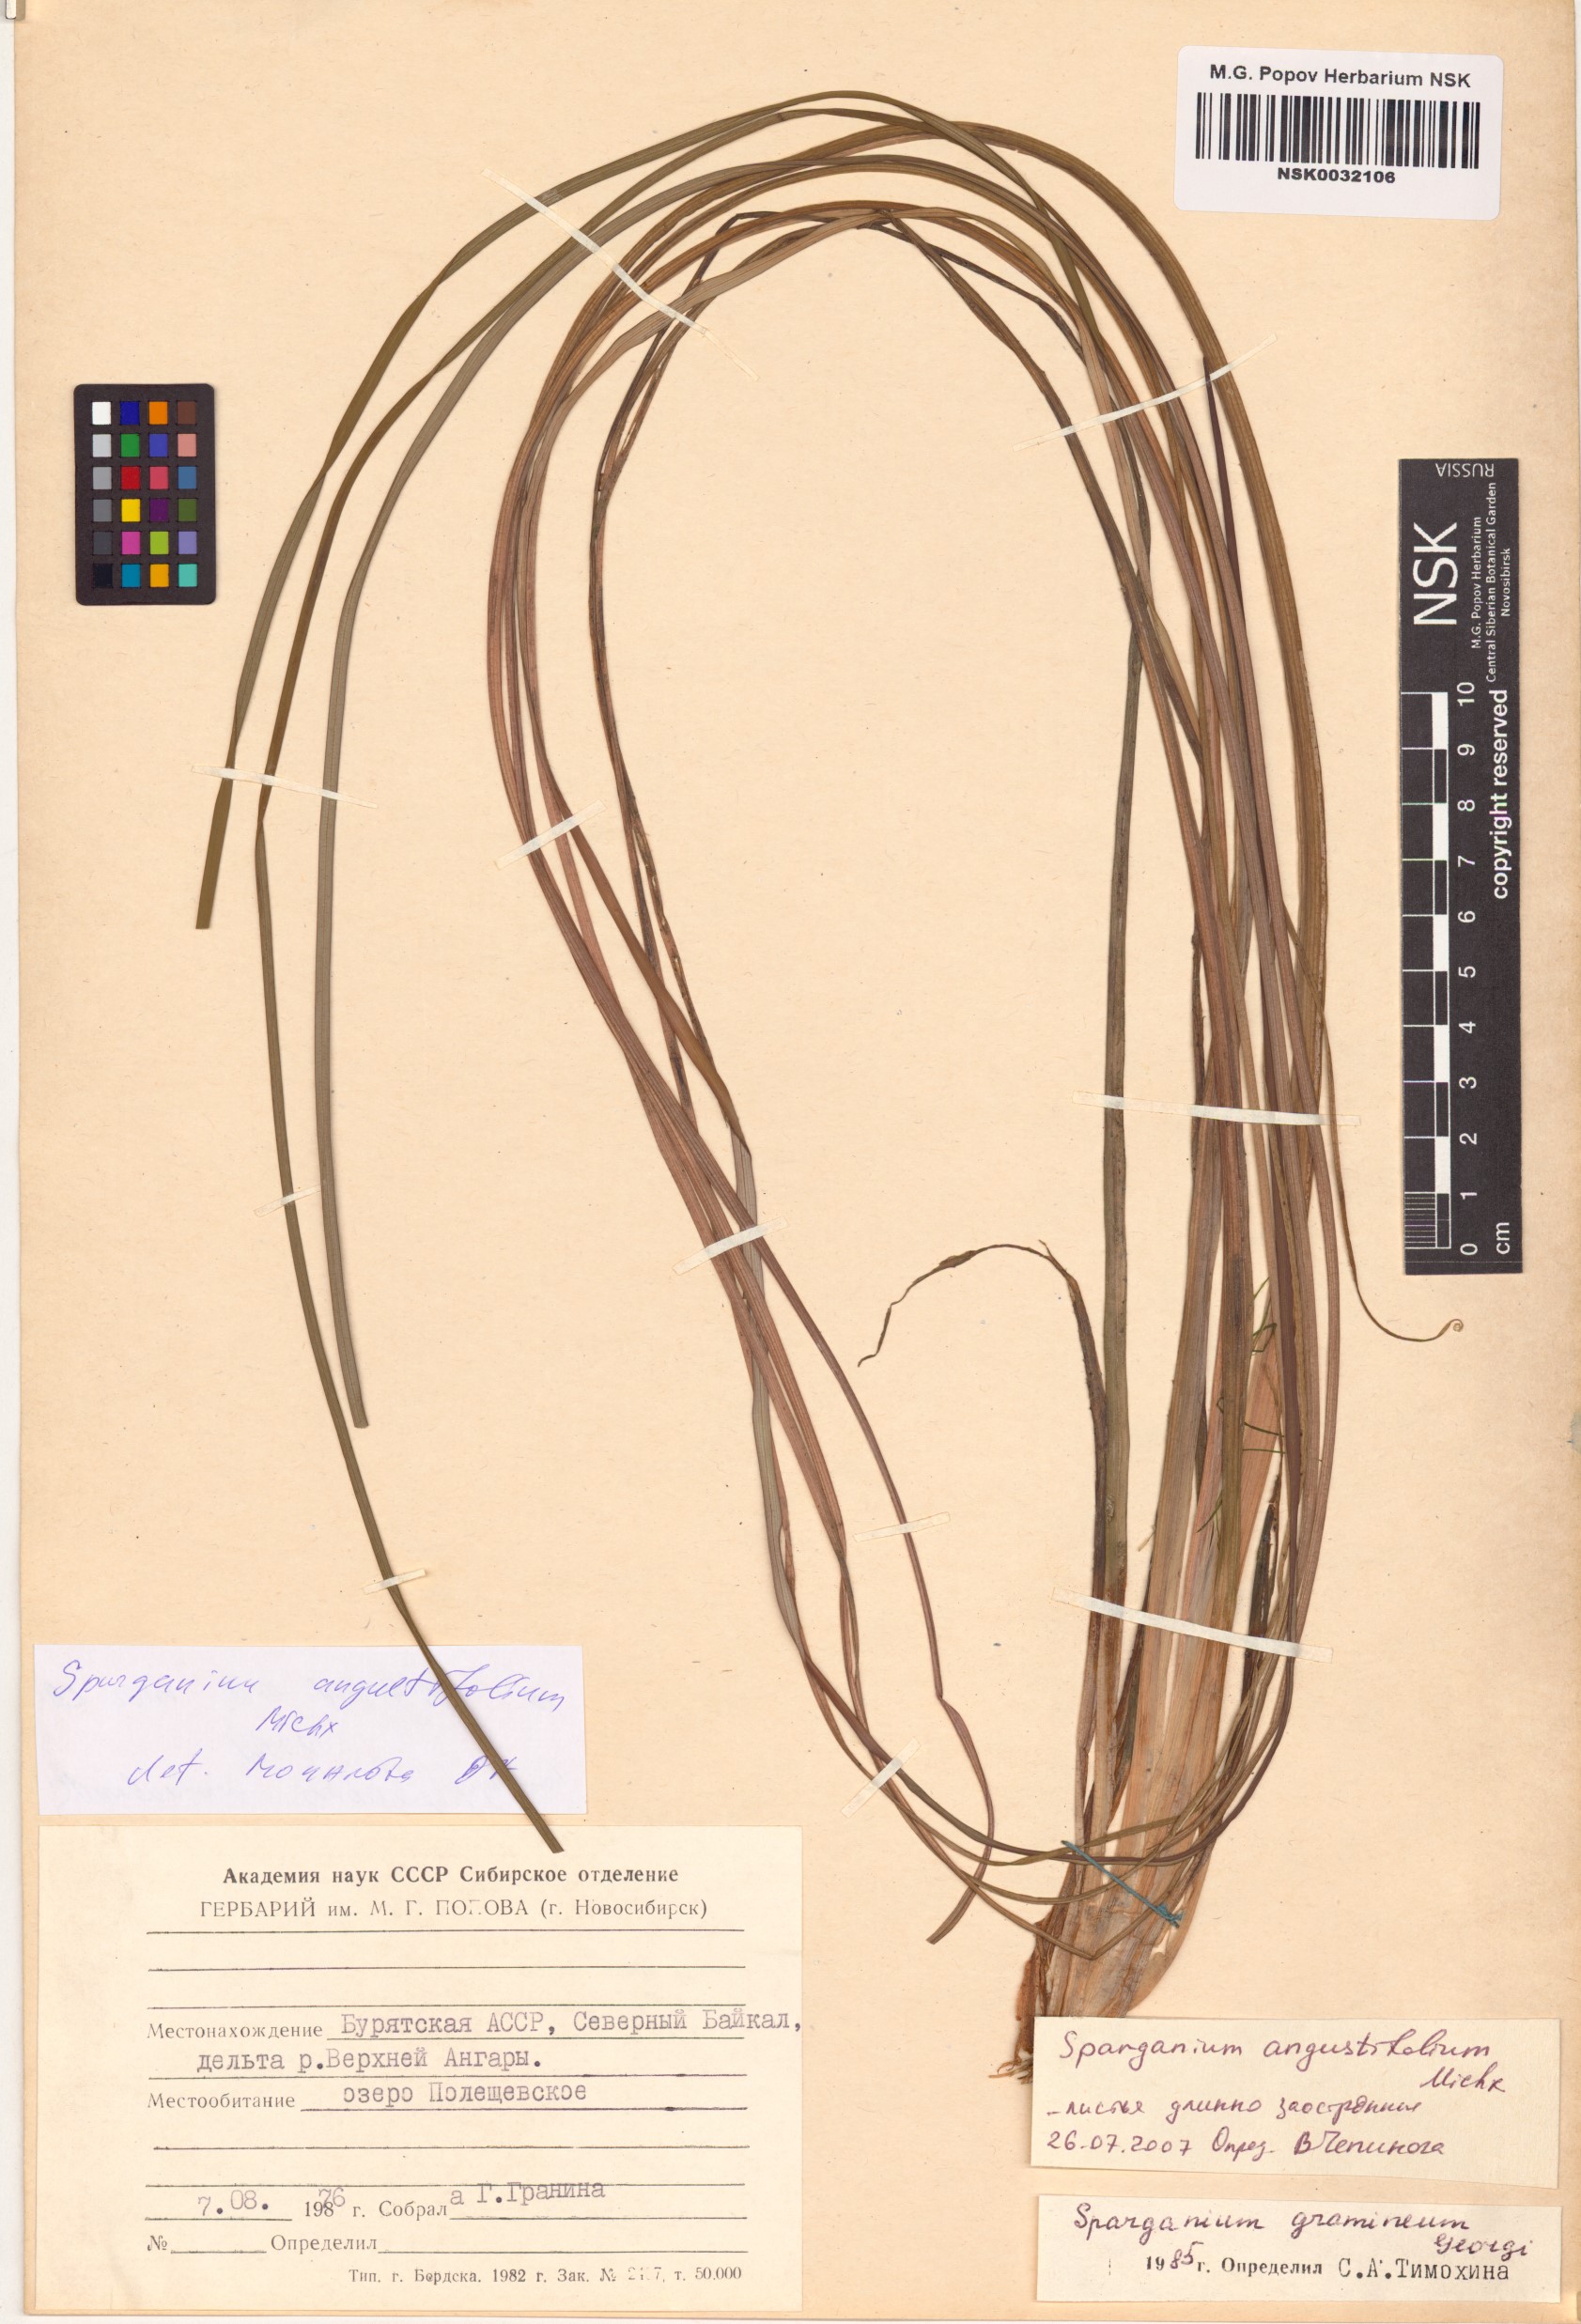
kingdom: Plantae
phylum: Tracheophyta
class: Liliopsida
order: Poales
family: Typhaceae
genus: Sparganium
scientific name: Sparganium angustifolium
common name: Floating bur-reed
